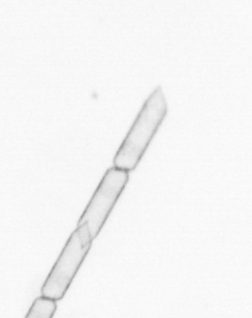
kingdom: Chromista
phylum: Ochrophyta
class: Bacillariophyceae
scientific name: Bacillariophyceae
